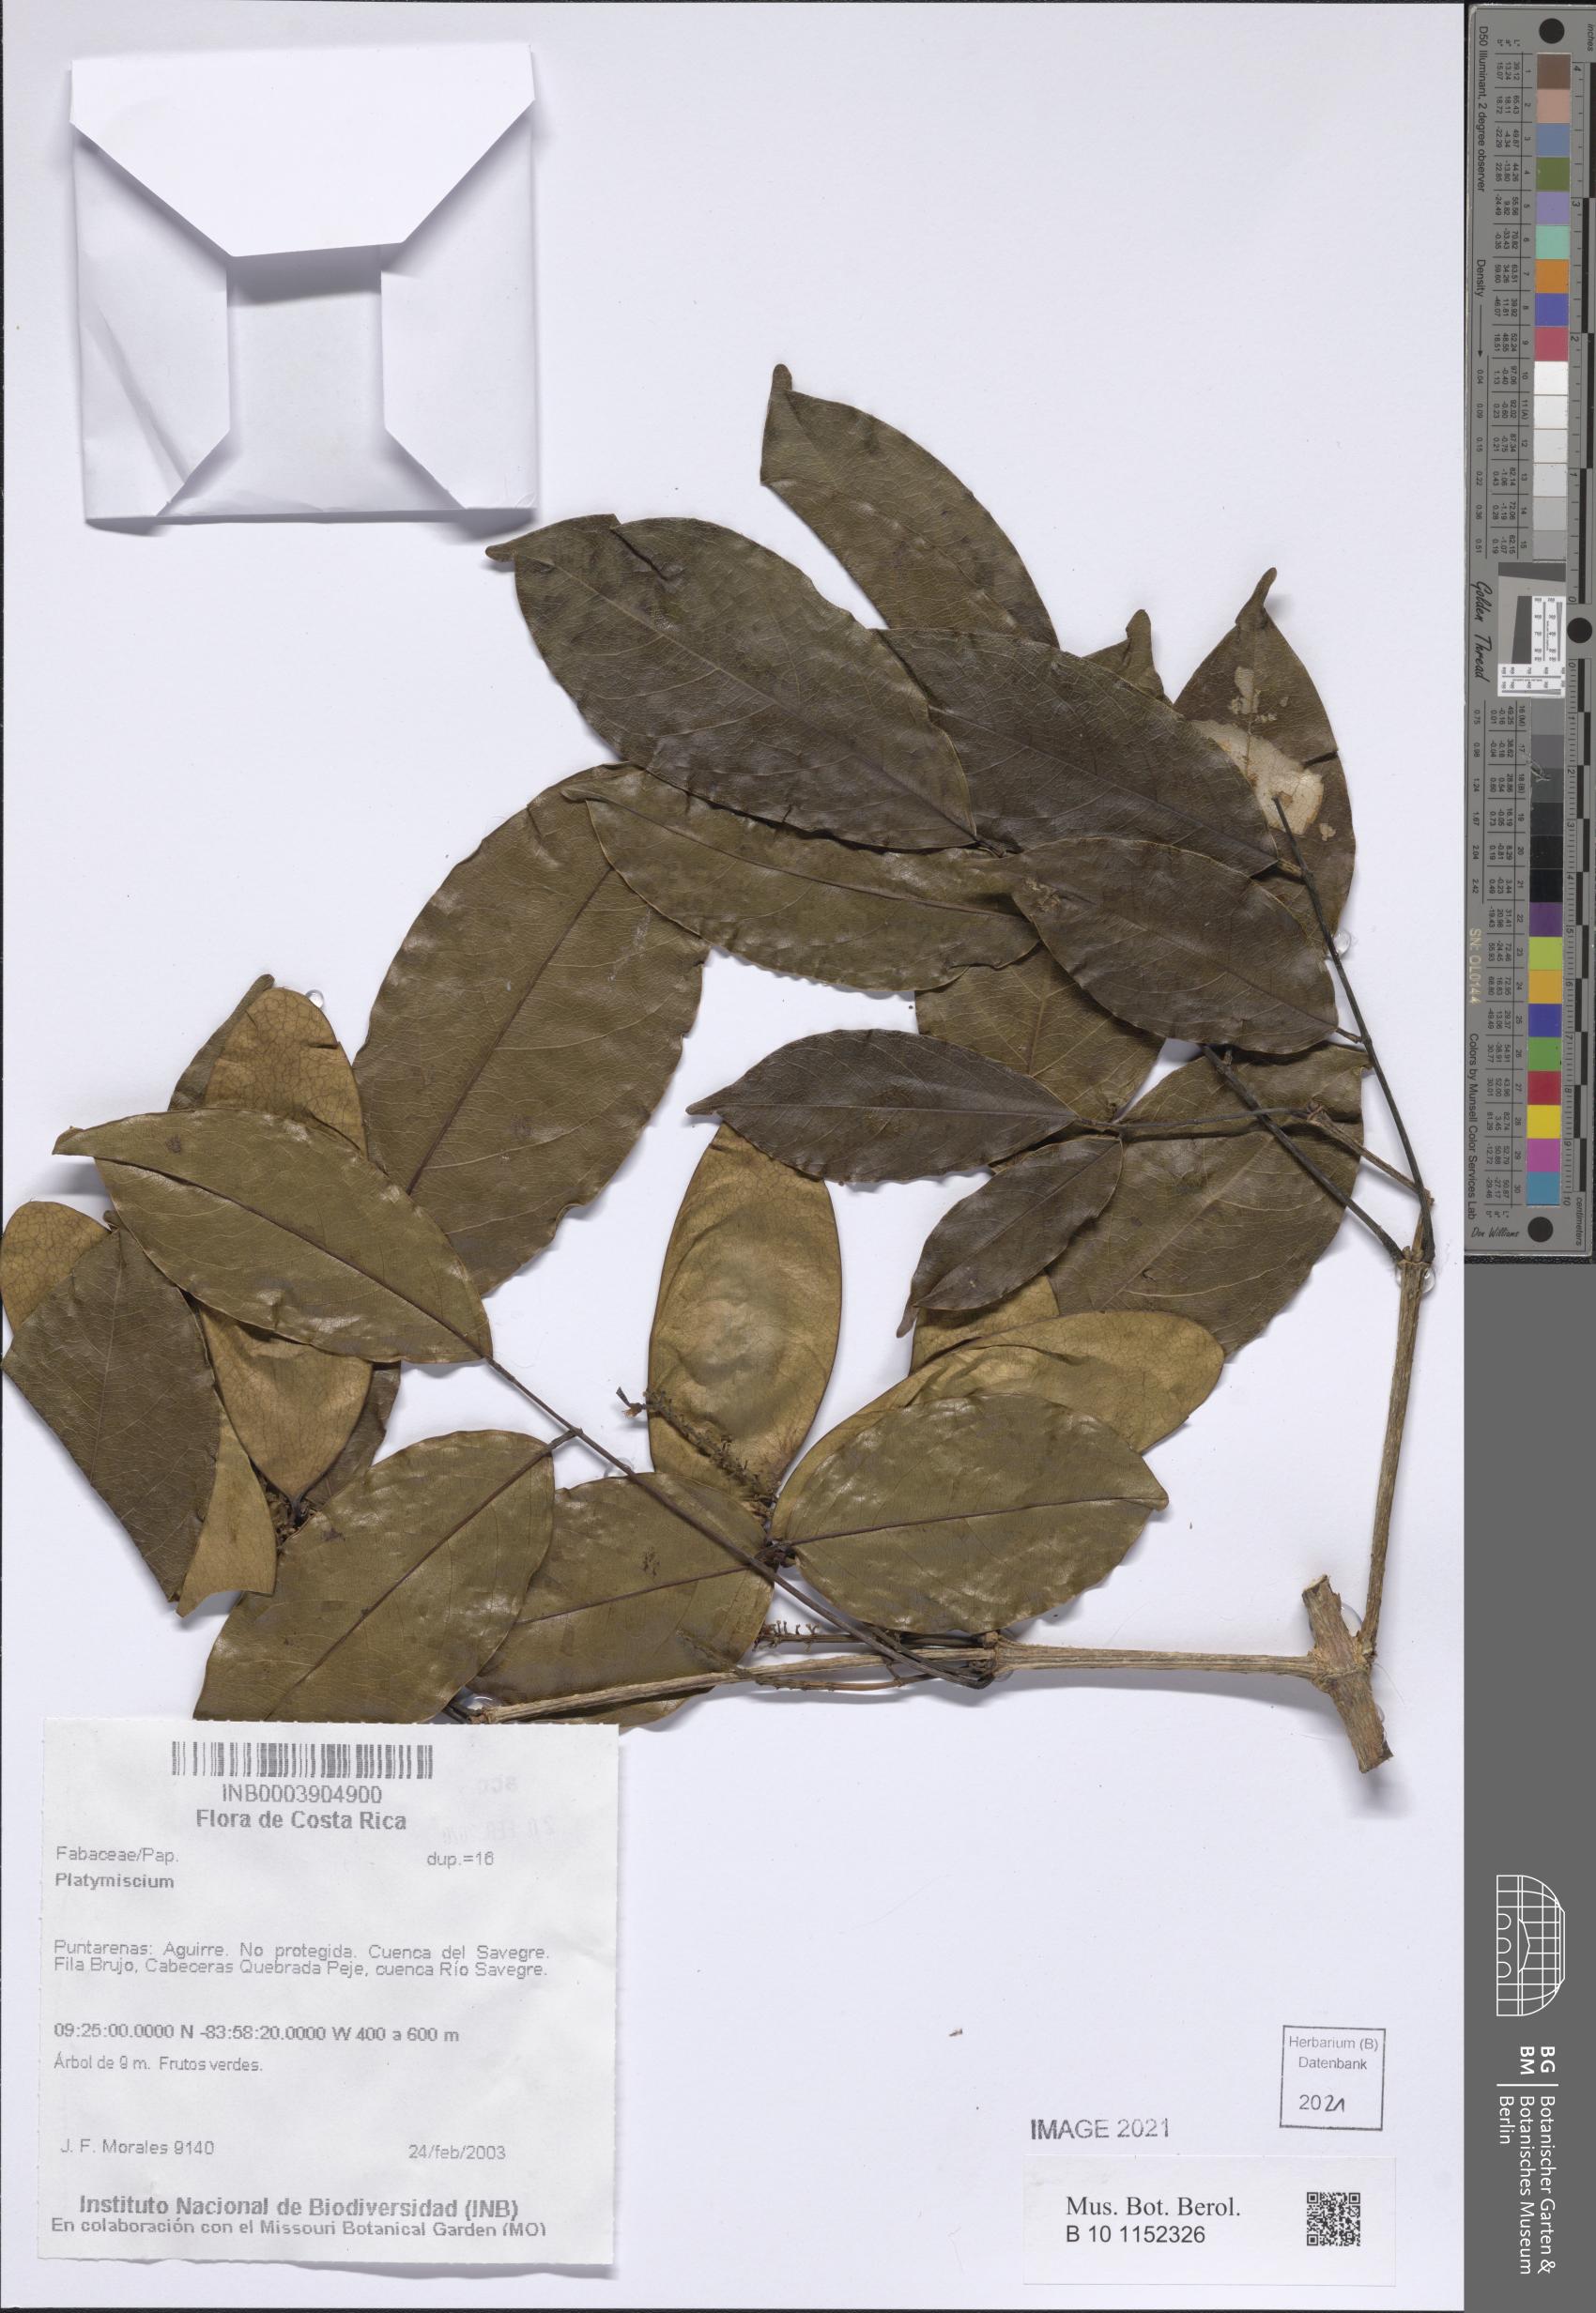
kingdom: Plantae
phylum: Tracheophyta
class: Magnoliopsida
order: Fabales
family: Fabaceae
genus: Platymiscium
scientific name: Platymiscium
